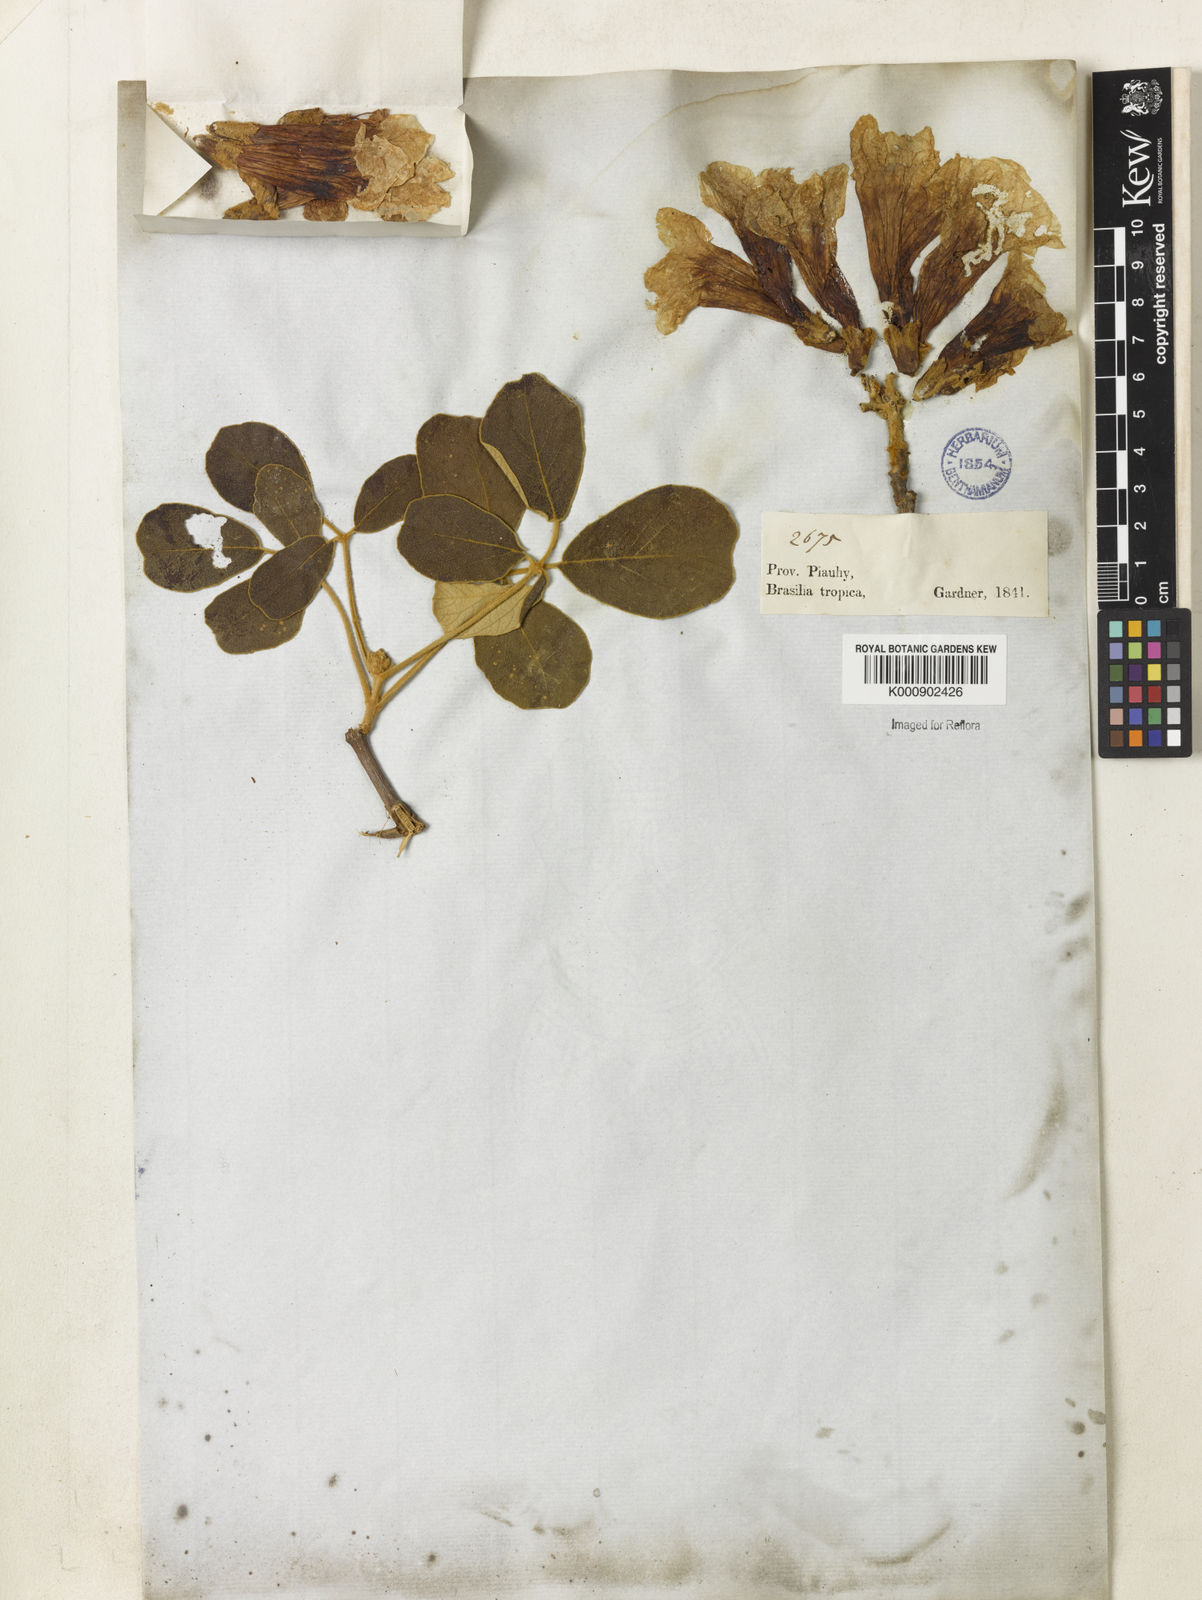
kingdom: Plantae
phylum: Tracheophyta
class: Magnoliopsida
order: Lamiales
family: Bignoniaceae
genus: Handroanthus
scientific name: Handroanthus ochraceus
